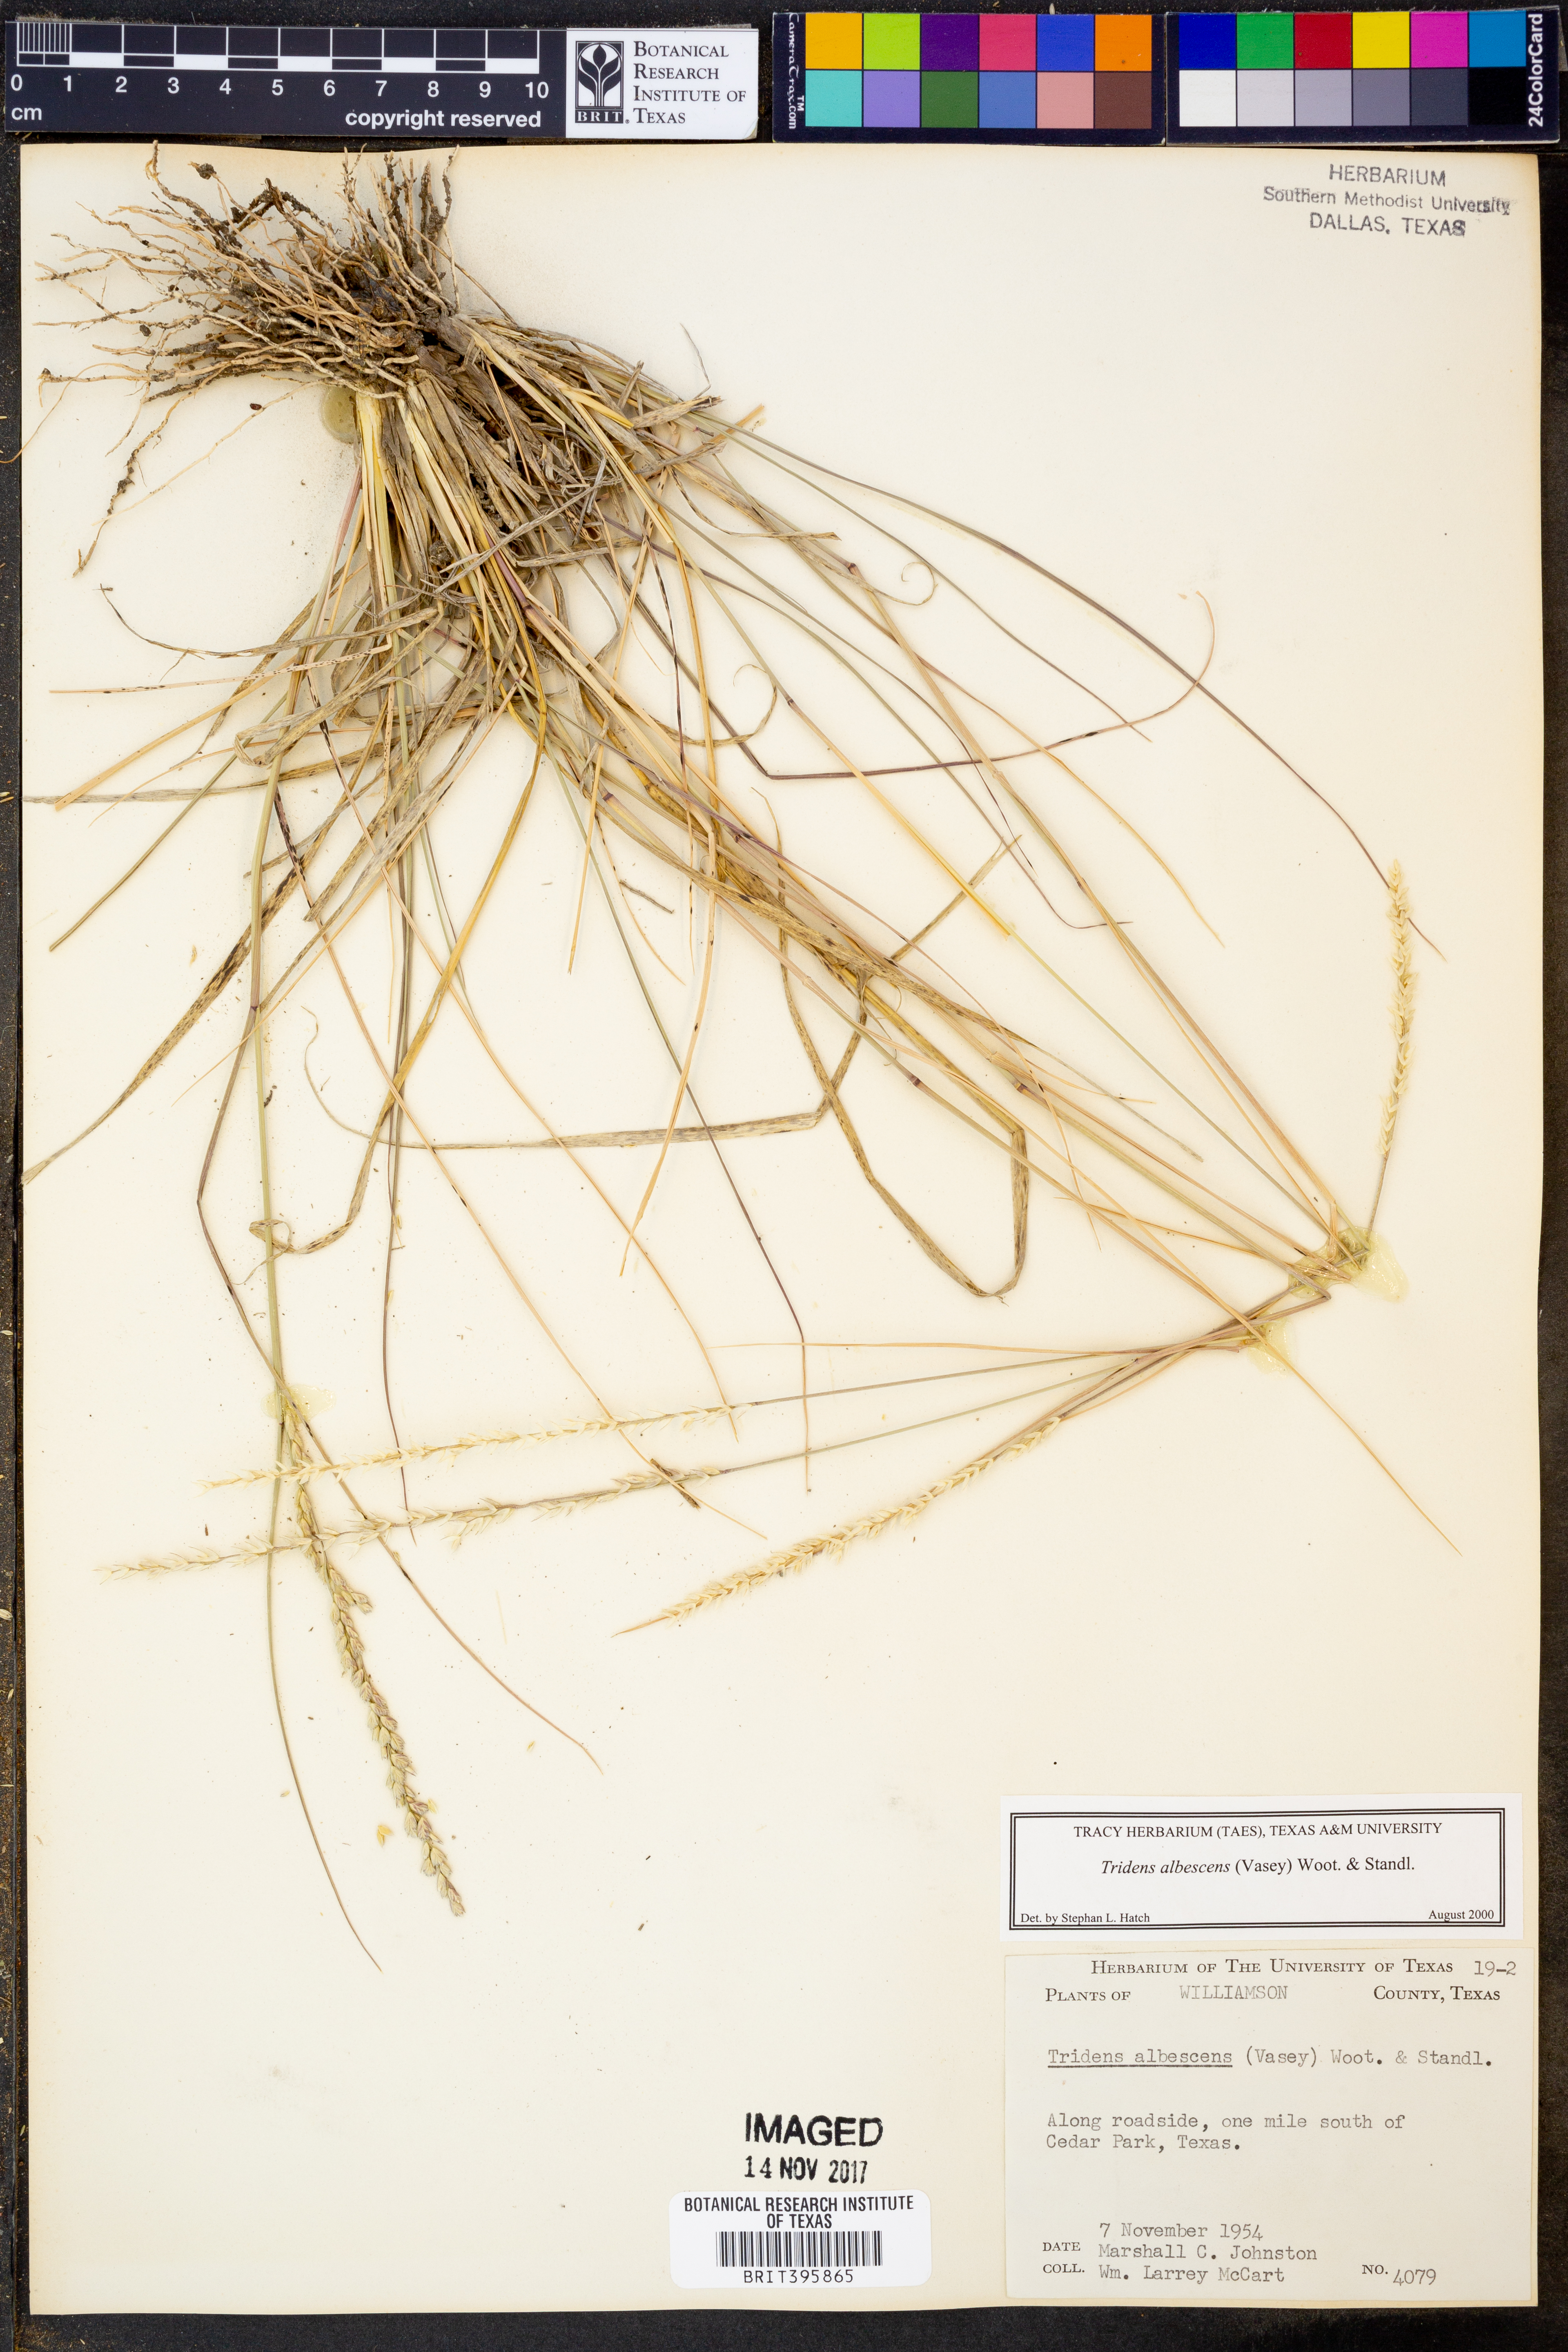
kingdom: Plantae
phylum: Tracheophyta
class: Liliopsida
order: Poales
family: Poaceae
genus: Tridens
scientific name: Tridens albescens
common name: White tridens
